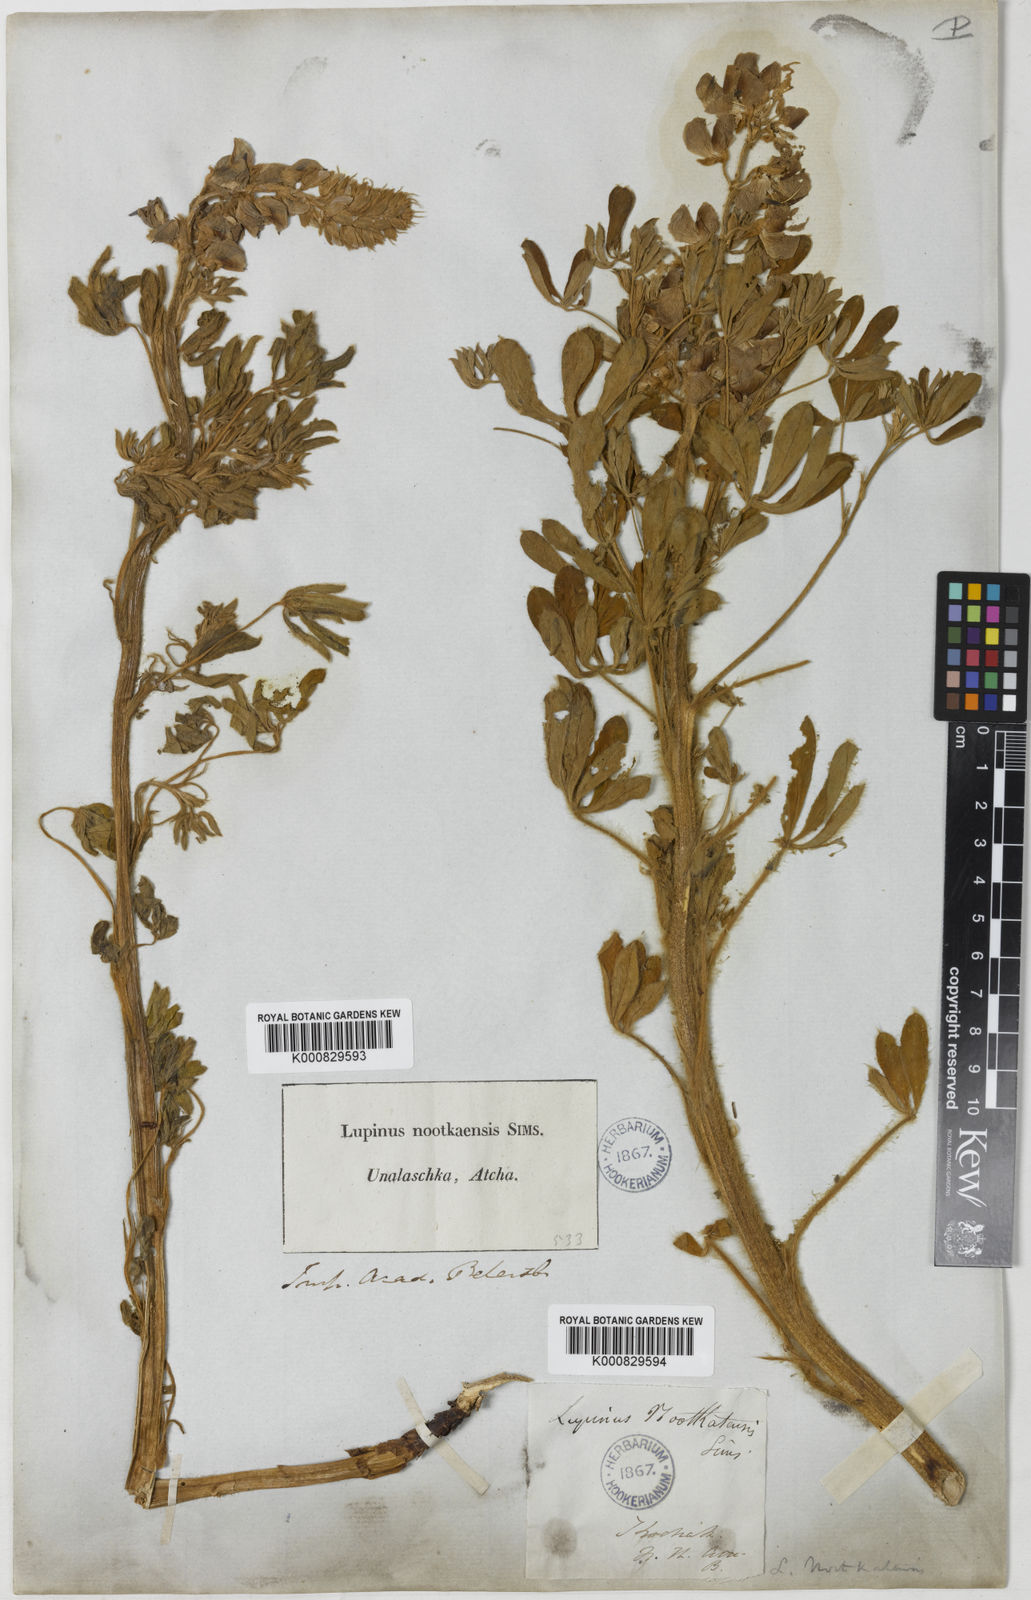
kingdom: Plantae
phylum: Tracheophyta
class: Magnoliopsida
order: Fabales
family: Fabaceae
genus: Lupinus
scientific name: Lupinus nootkatensis
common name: Nootka lupine
